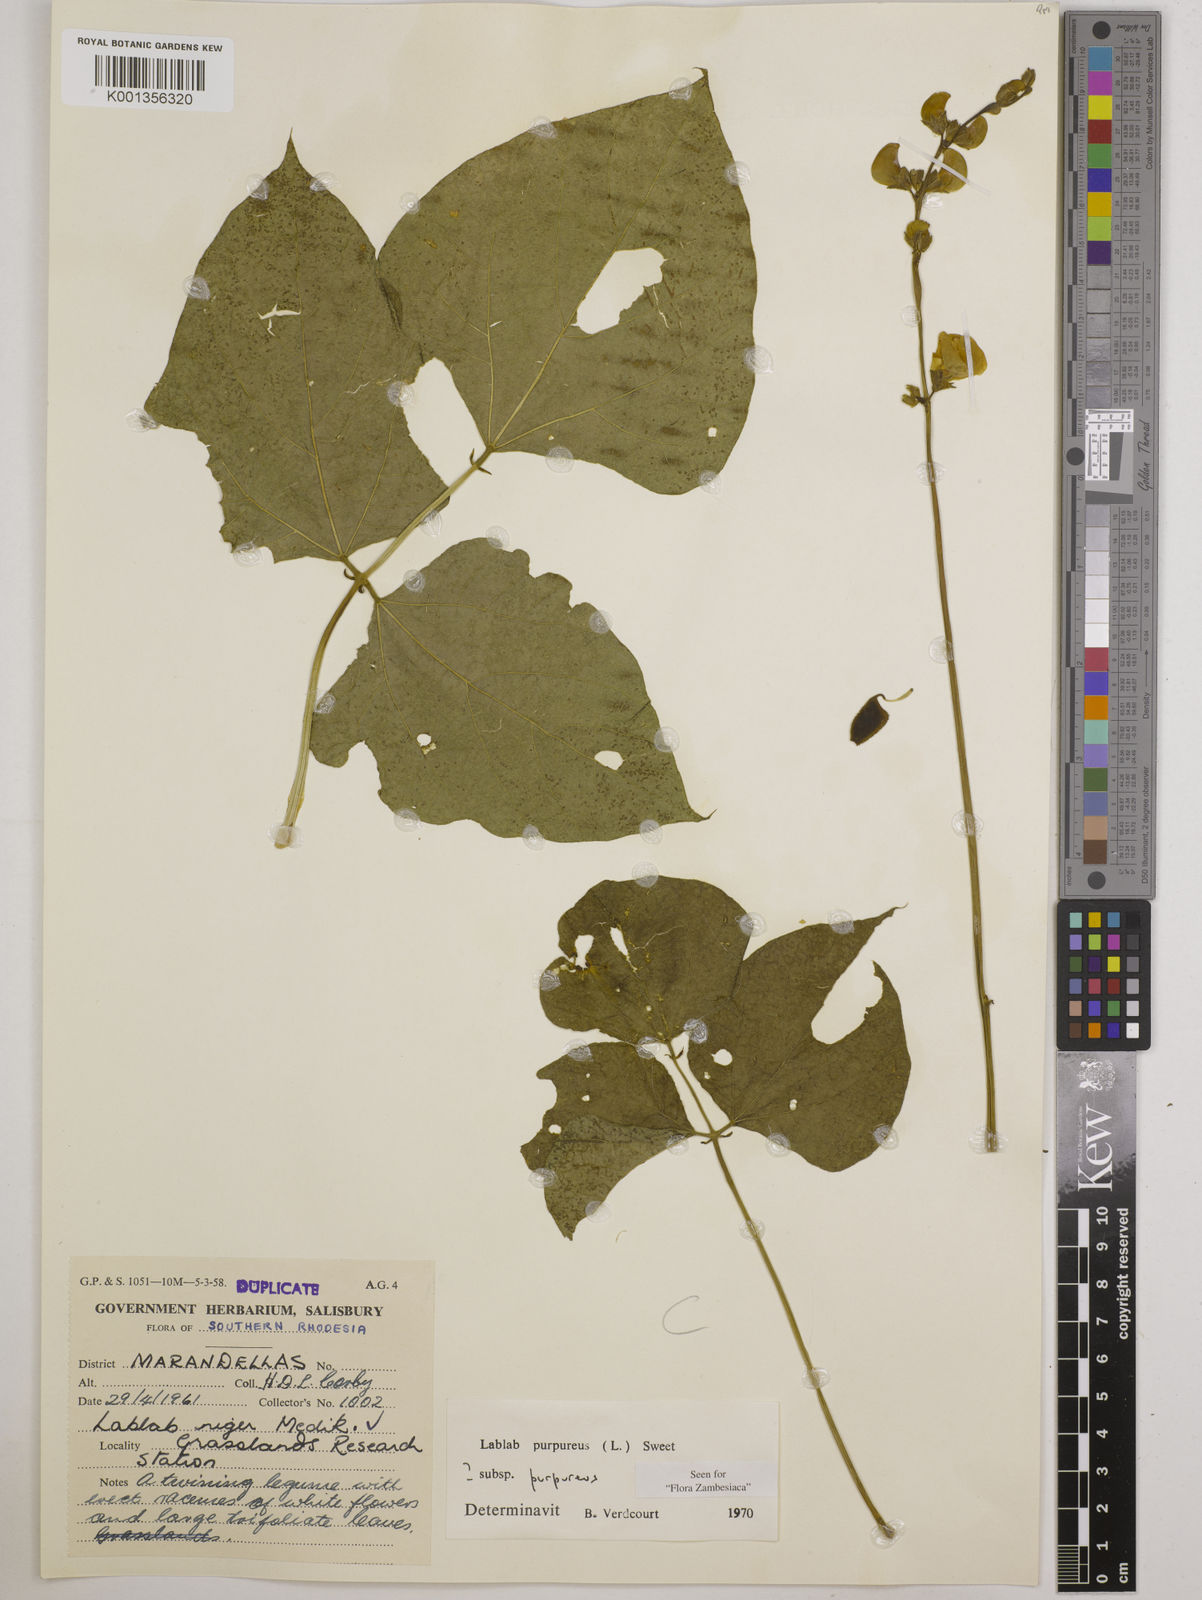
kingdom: Plantae
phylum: Tracheophyta
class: Magnoliopsida
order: Fabales
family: Fabaceae
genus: Lablab
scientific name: Lablab purpureus
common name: Lablab-bean
